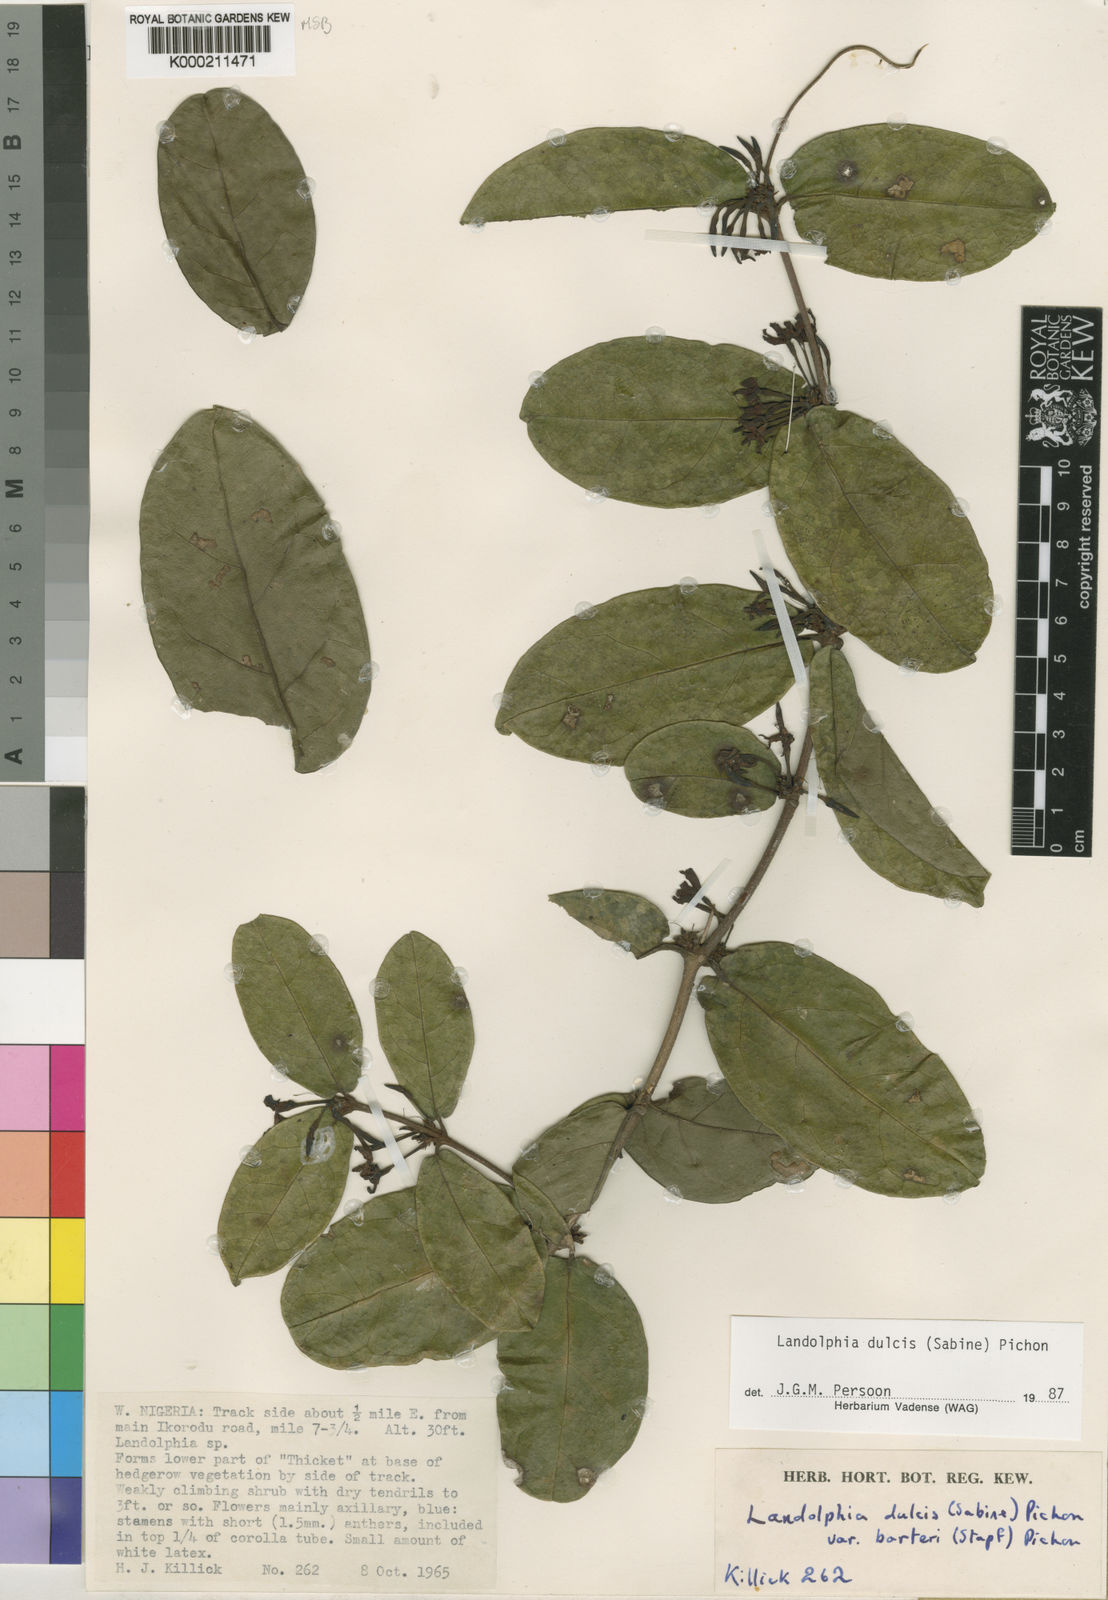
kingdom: Plantae
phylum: Tracheophyta
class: Magnoliopsida
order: Gentianales
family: Apocynaceae
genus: Landolphia
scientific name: Landolphia dulcis
